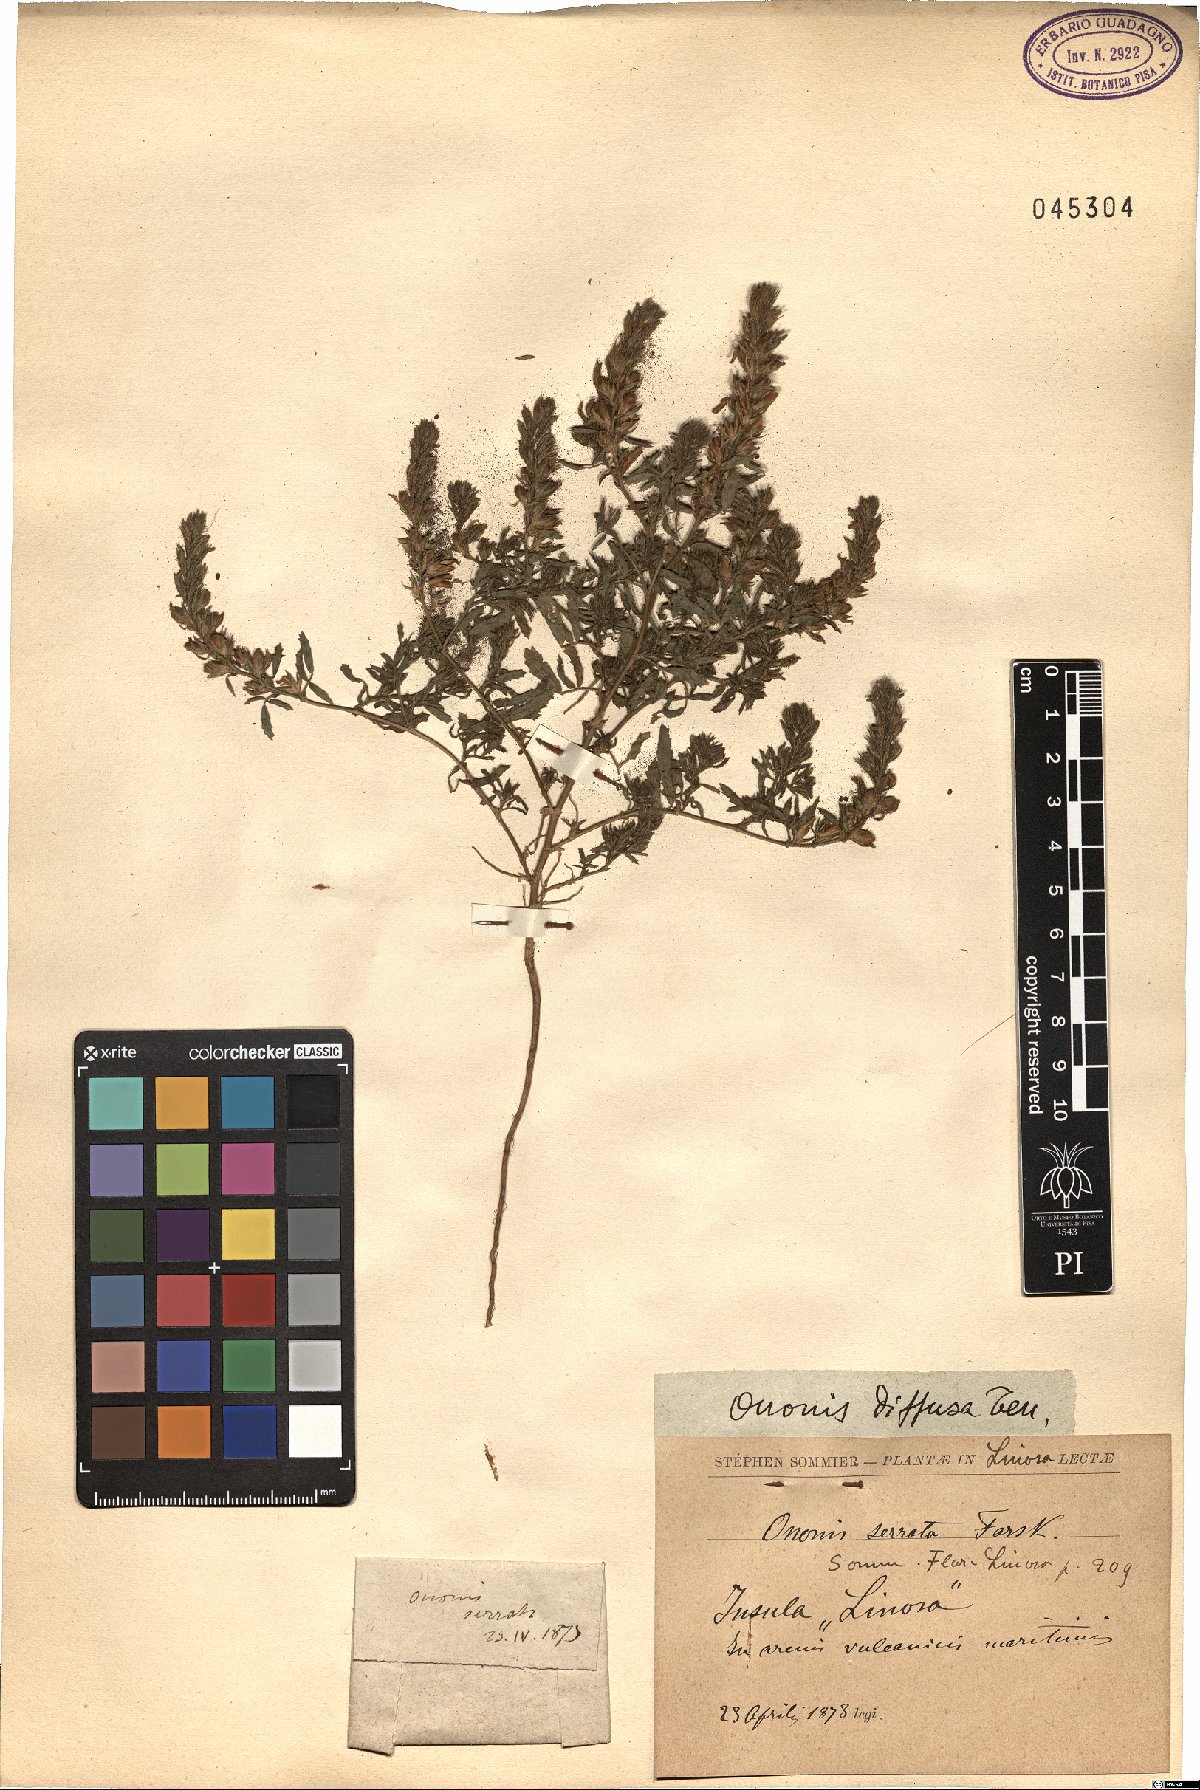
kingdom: Plantae
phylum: Tracheophyta
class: Magnoliopsida
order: Fabales
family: Fabaceae
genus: Ononis
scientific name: Ononis diffusa
